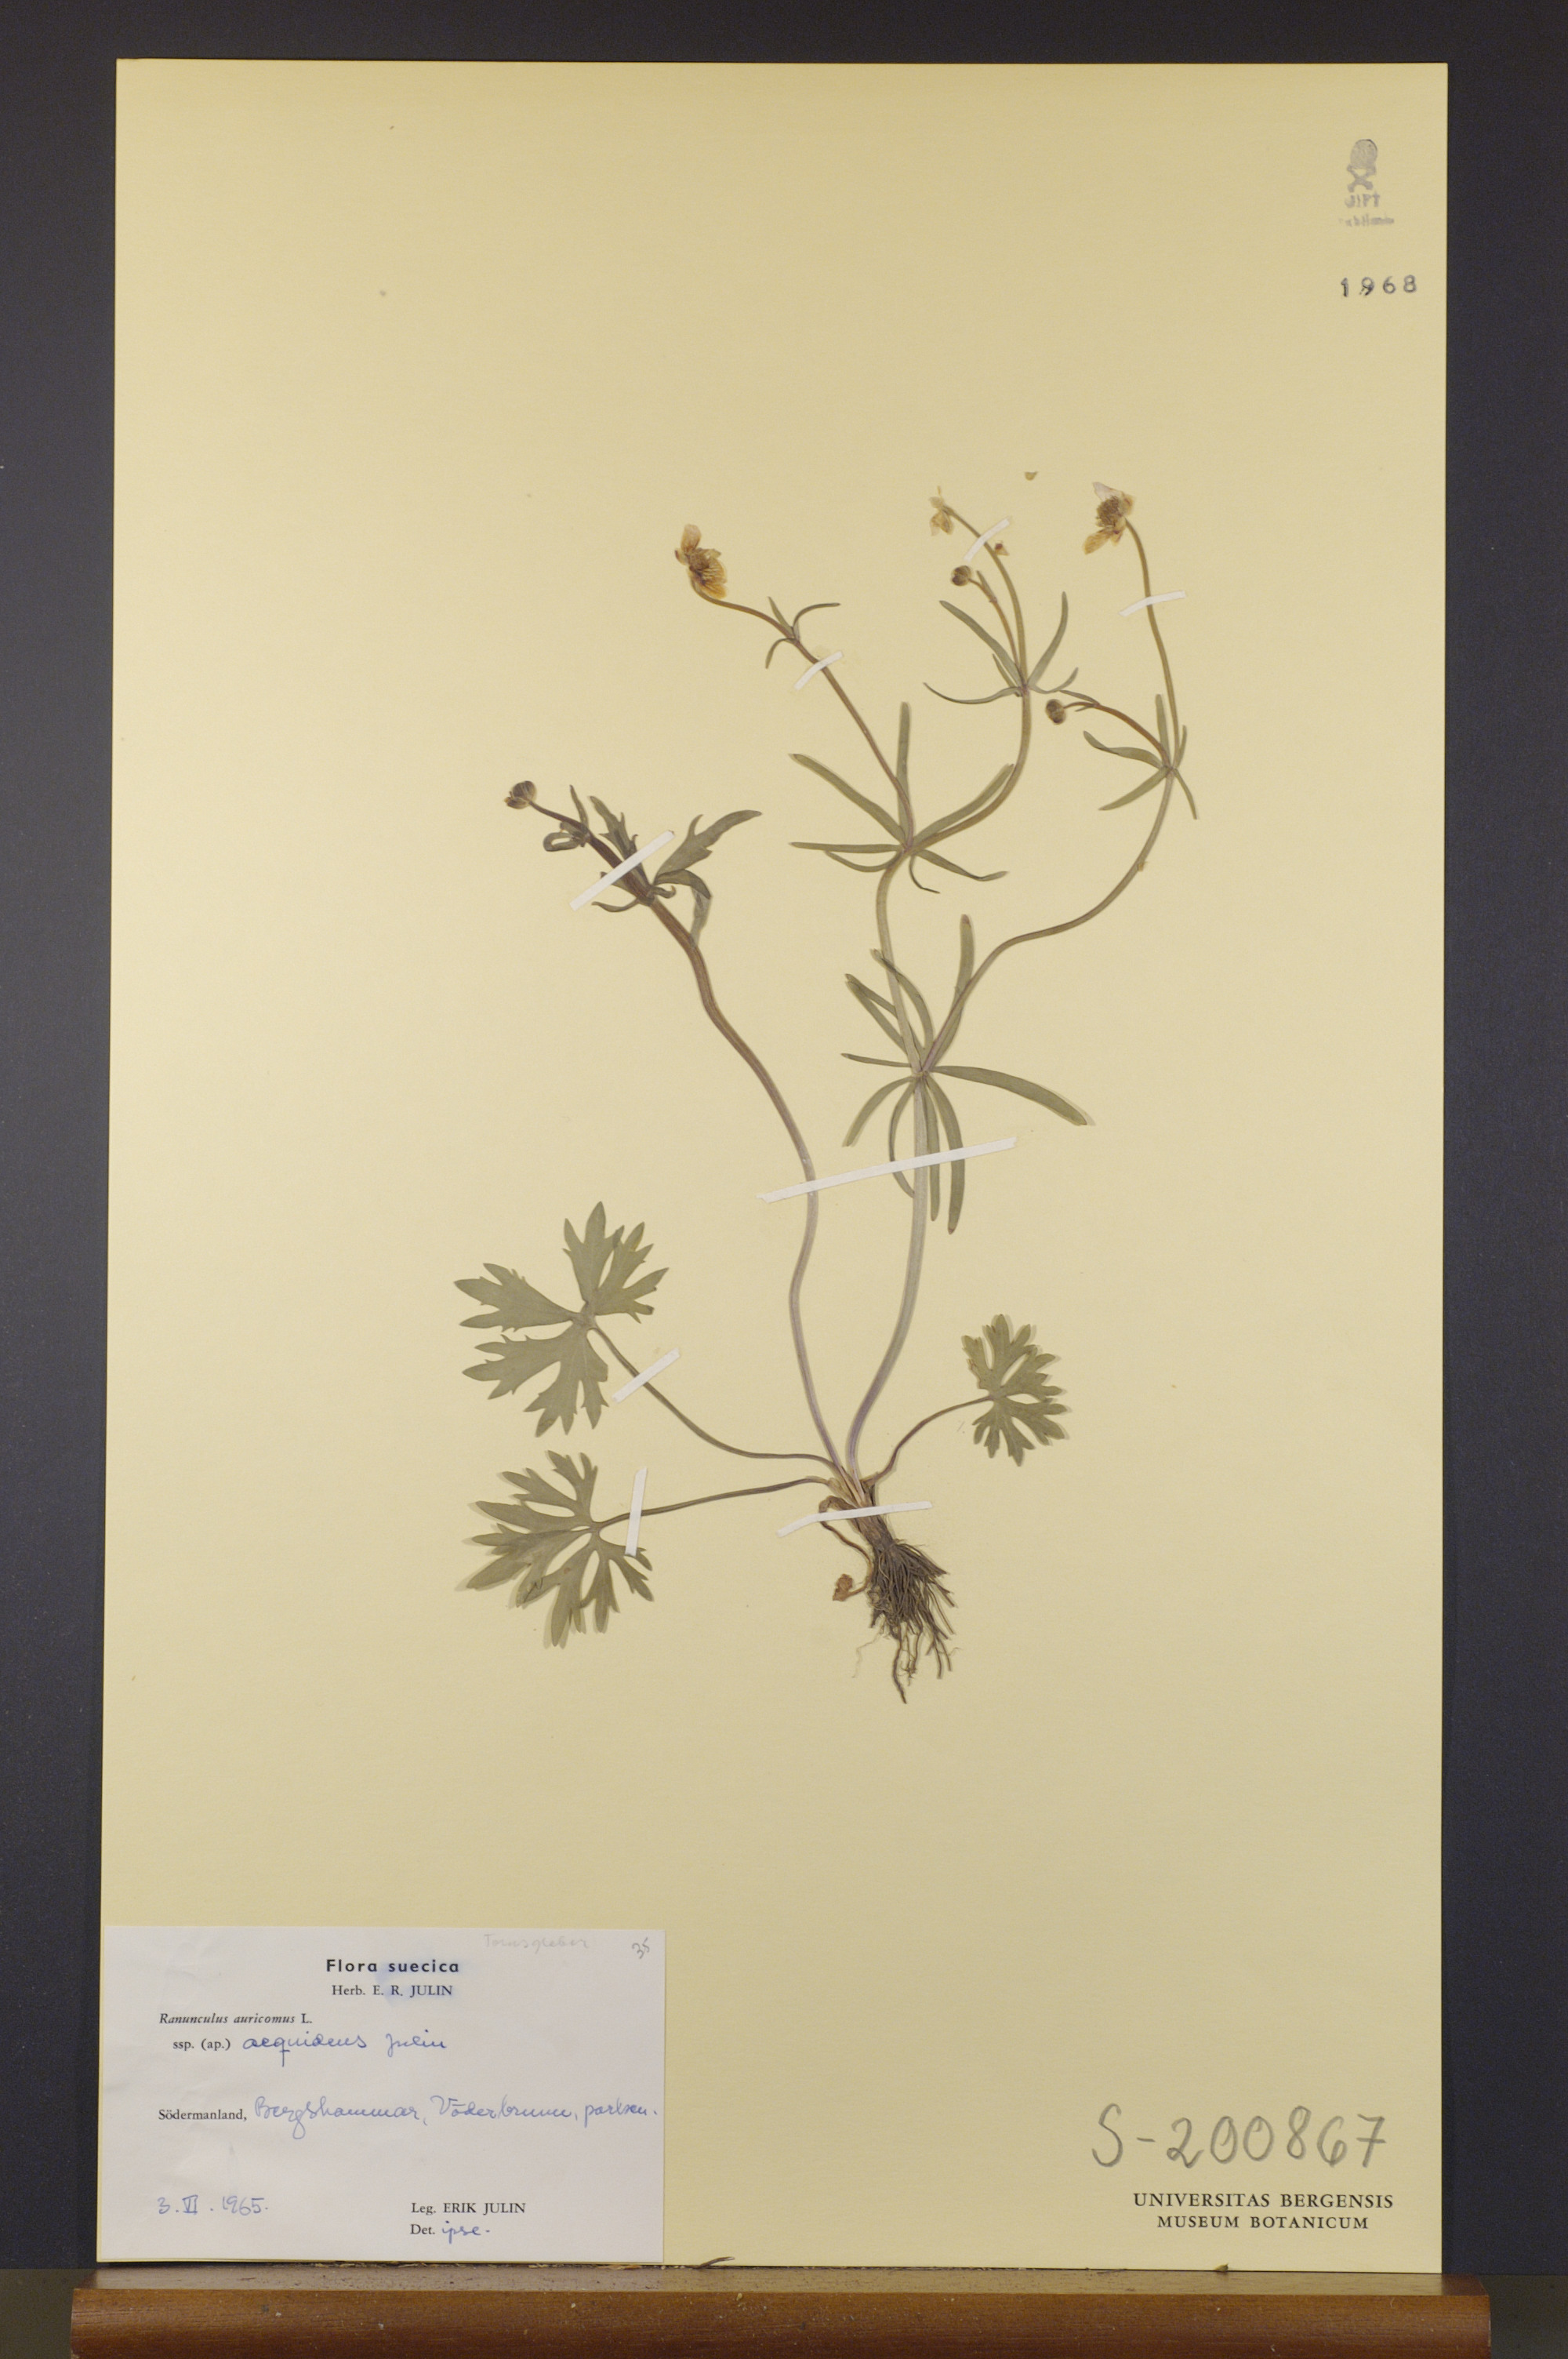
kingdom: Plantae
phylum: Tracheophyta
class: Magnoliopsida
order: Ranunculales
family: Ranunculaceae
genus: Ranunculus
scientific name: Ranunculus aequidens
